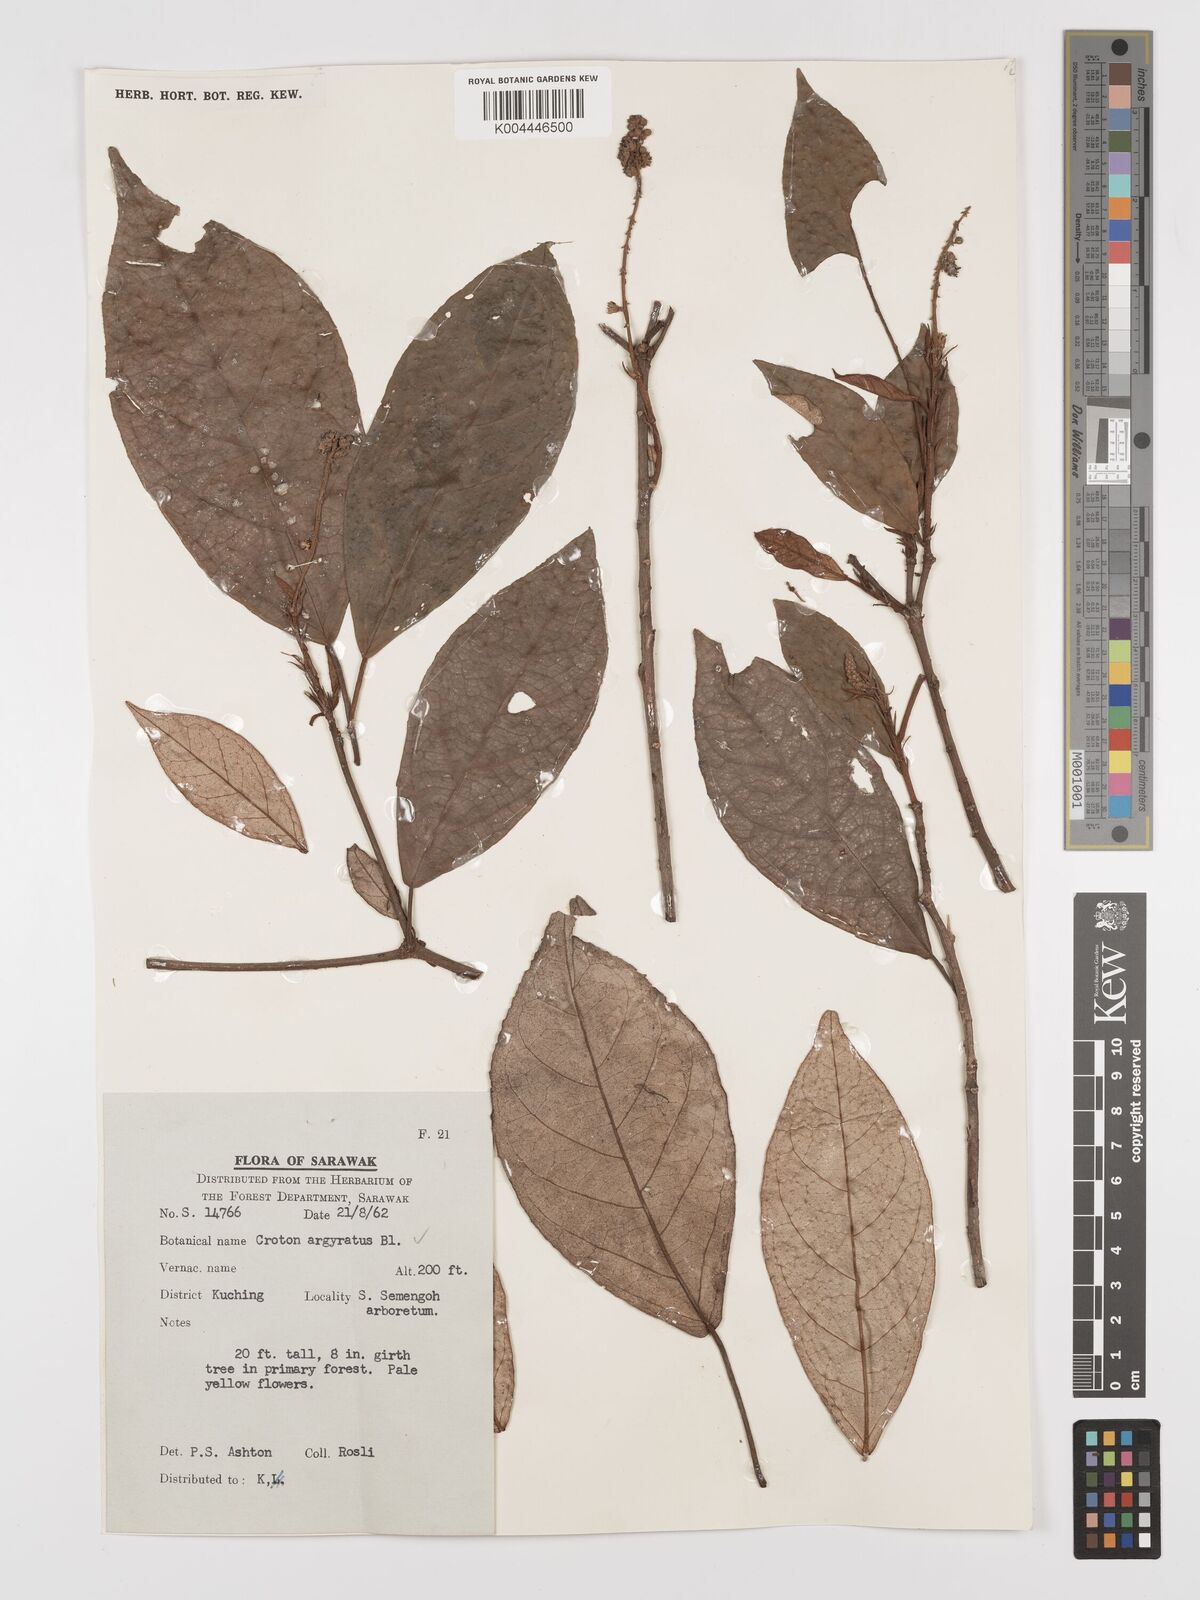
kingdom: Plantae
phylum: Tracheophyta
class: Magnoliopsida
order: Malpighiales
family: Euphorbiaceae
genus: Croton
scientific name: Croton argyratus
